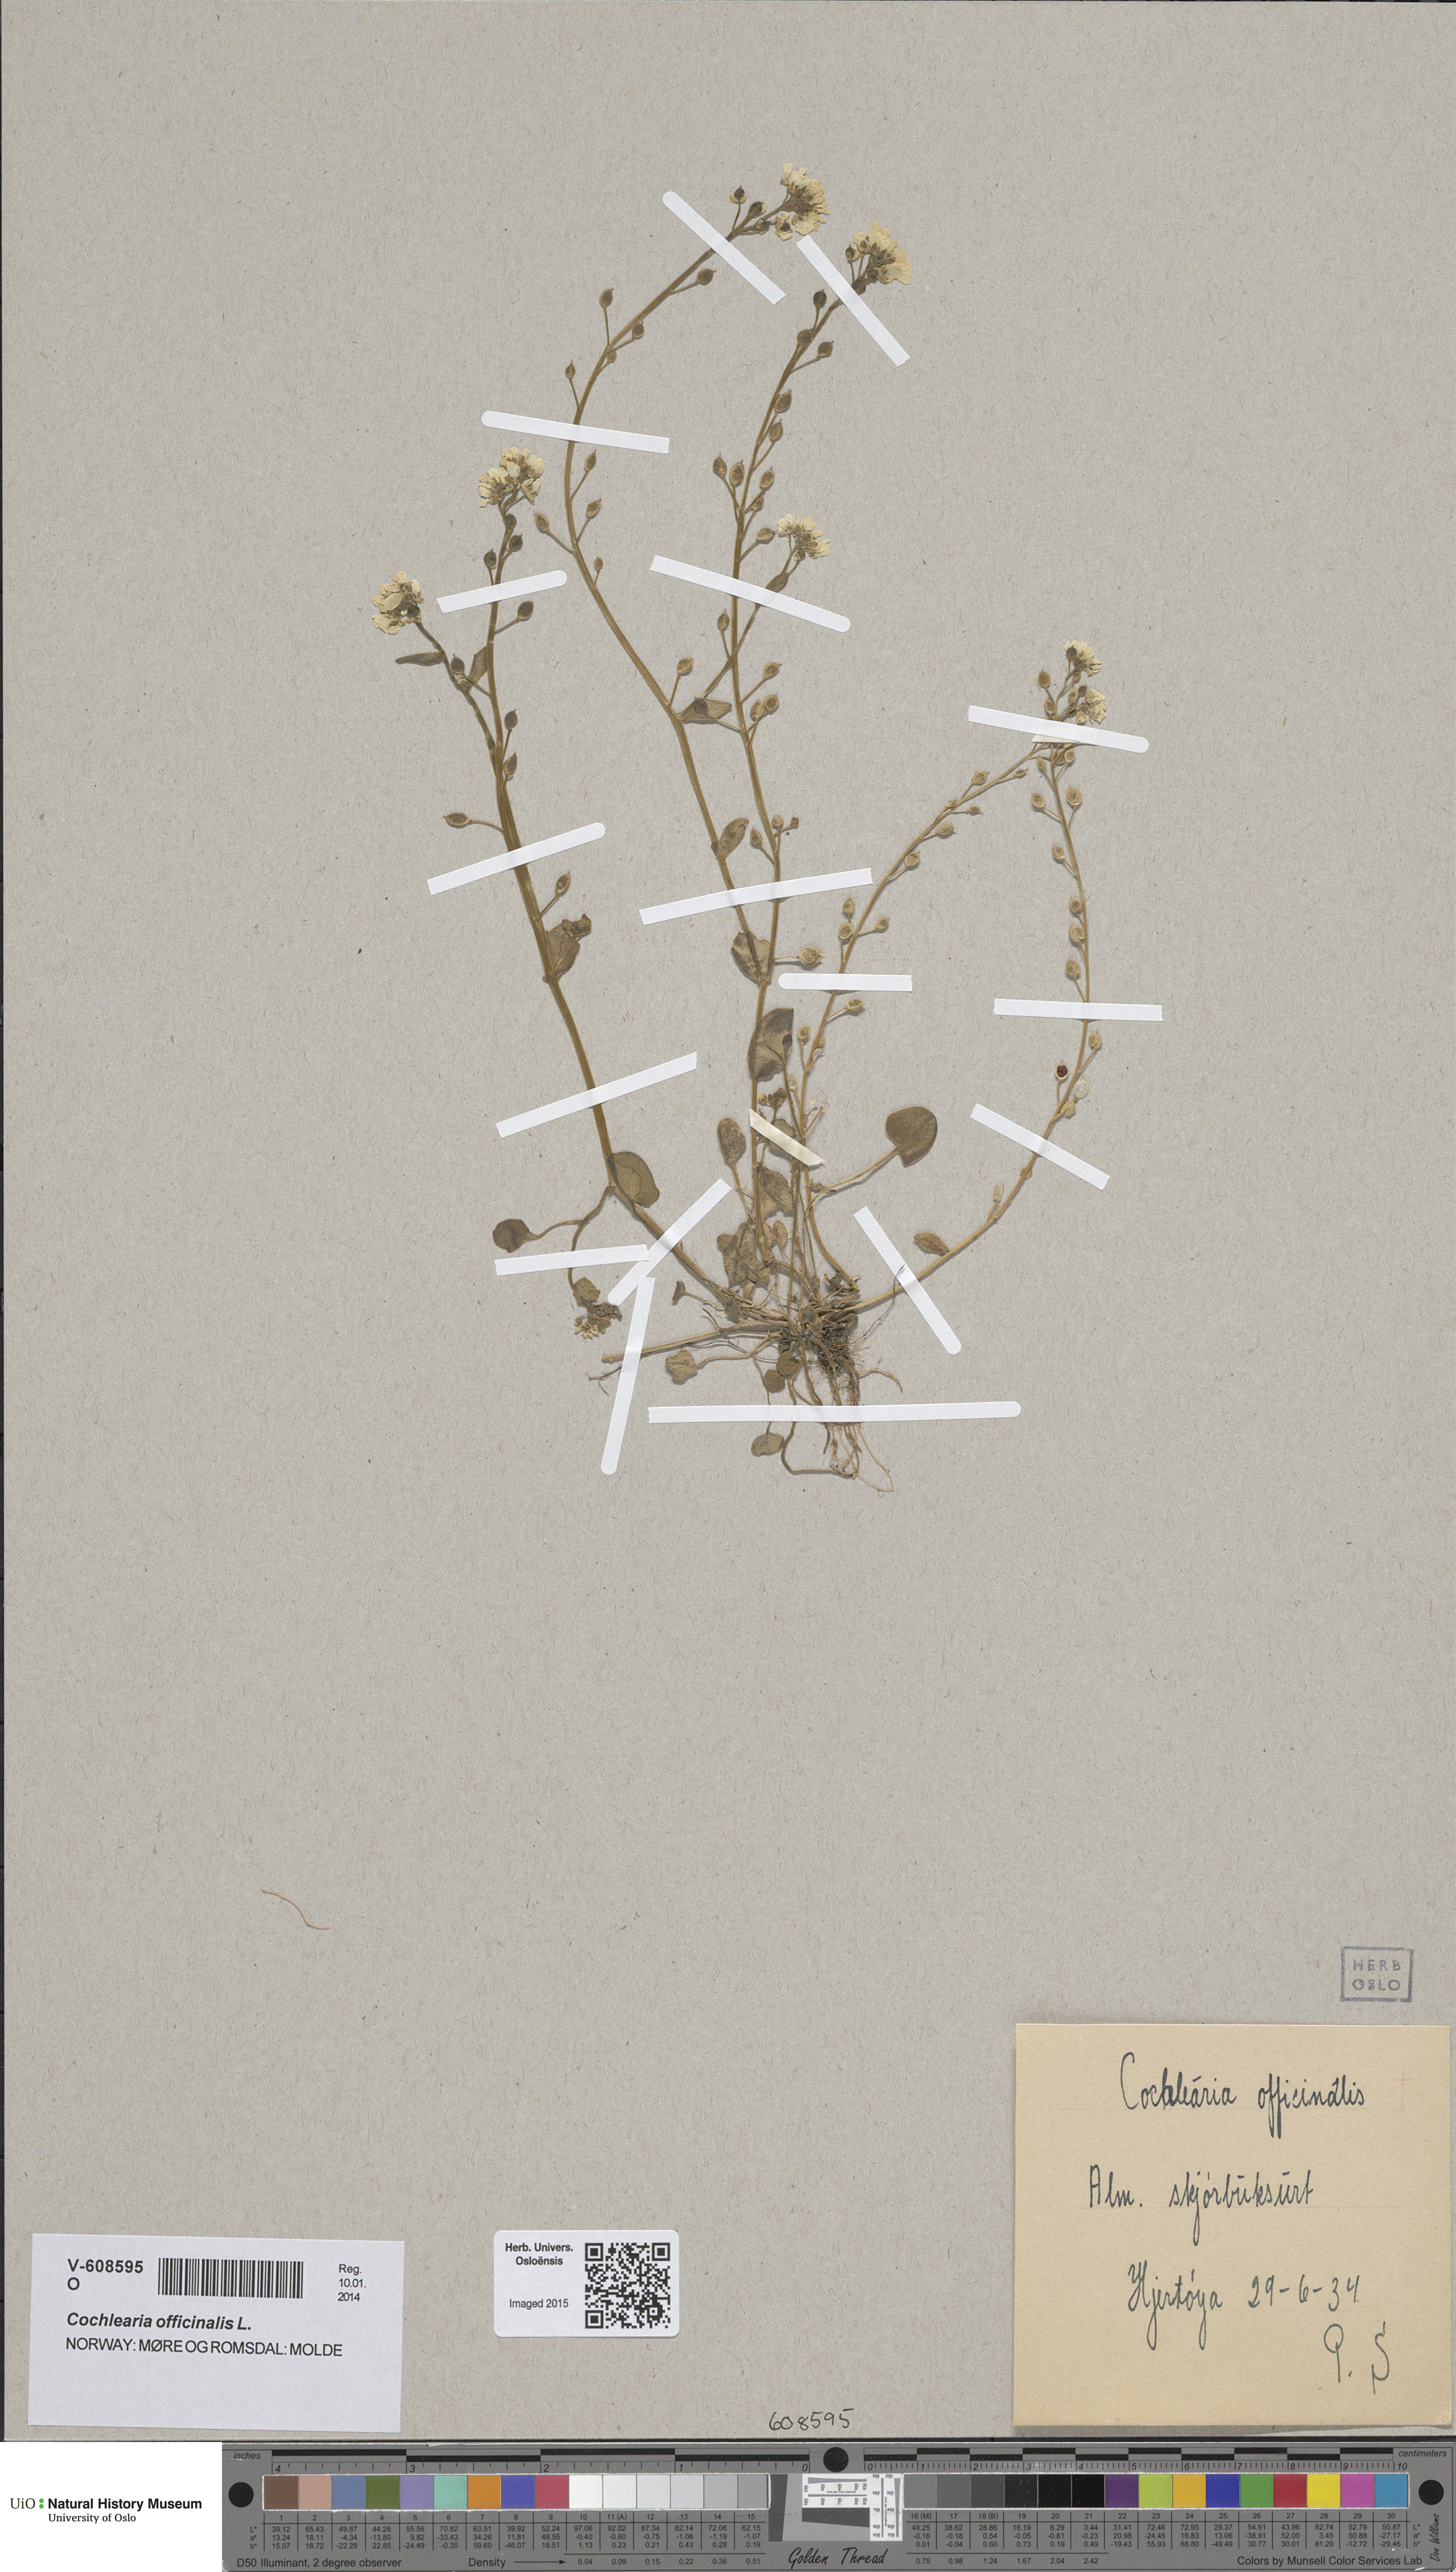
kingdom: Plantae
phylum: Tracheophyta
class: Magnoliopsida
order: Brassicales
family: Brassicaceae
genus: Cochlearia
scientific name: Cochlearia officinalis
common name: Scurvy-grass
